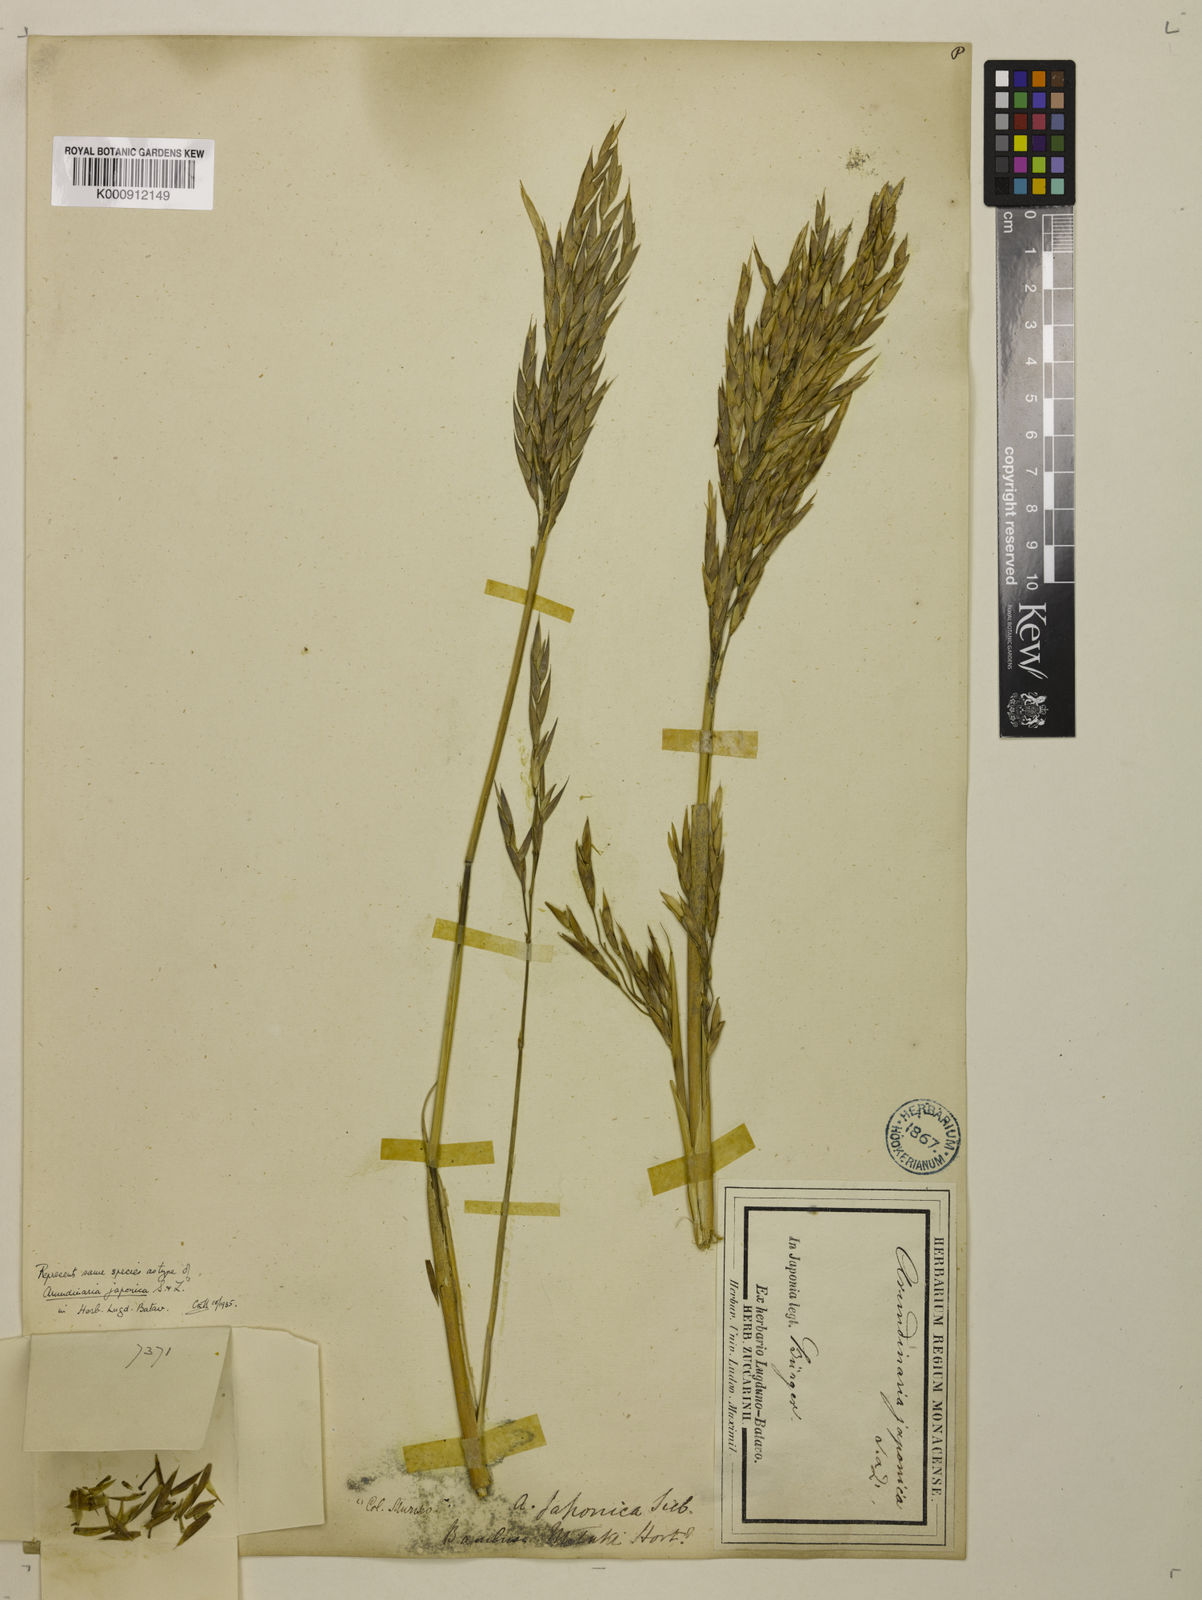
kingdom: Plantae
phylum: Tracheophyta
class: Liliopsida
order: Poales
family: Poaceae
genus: Pseudosasa
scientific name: Pseudosasa japonica
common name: Arrow bamboo
